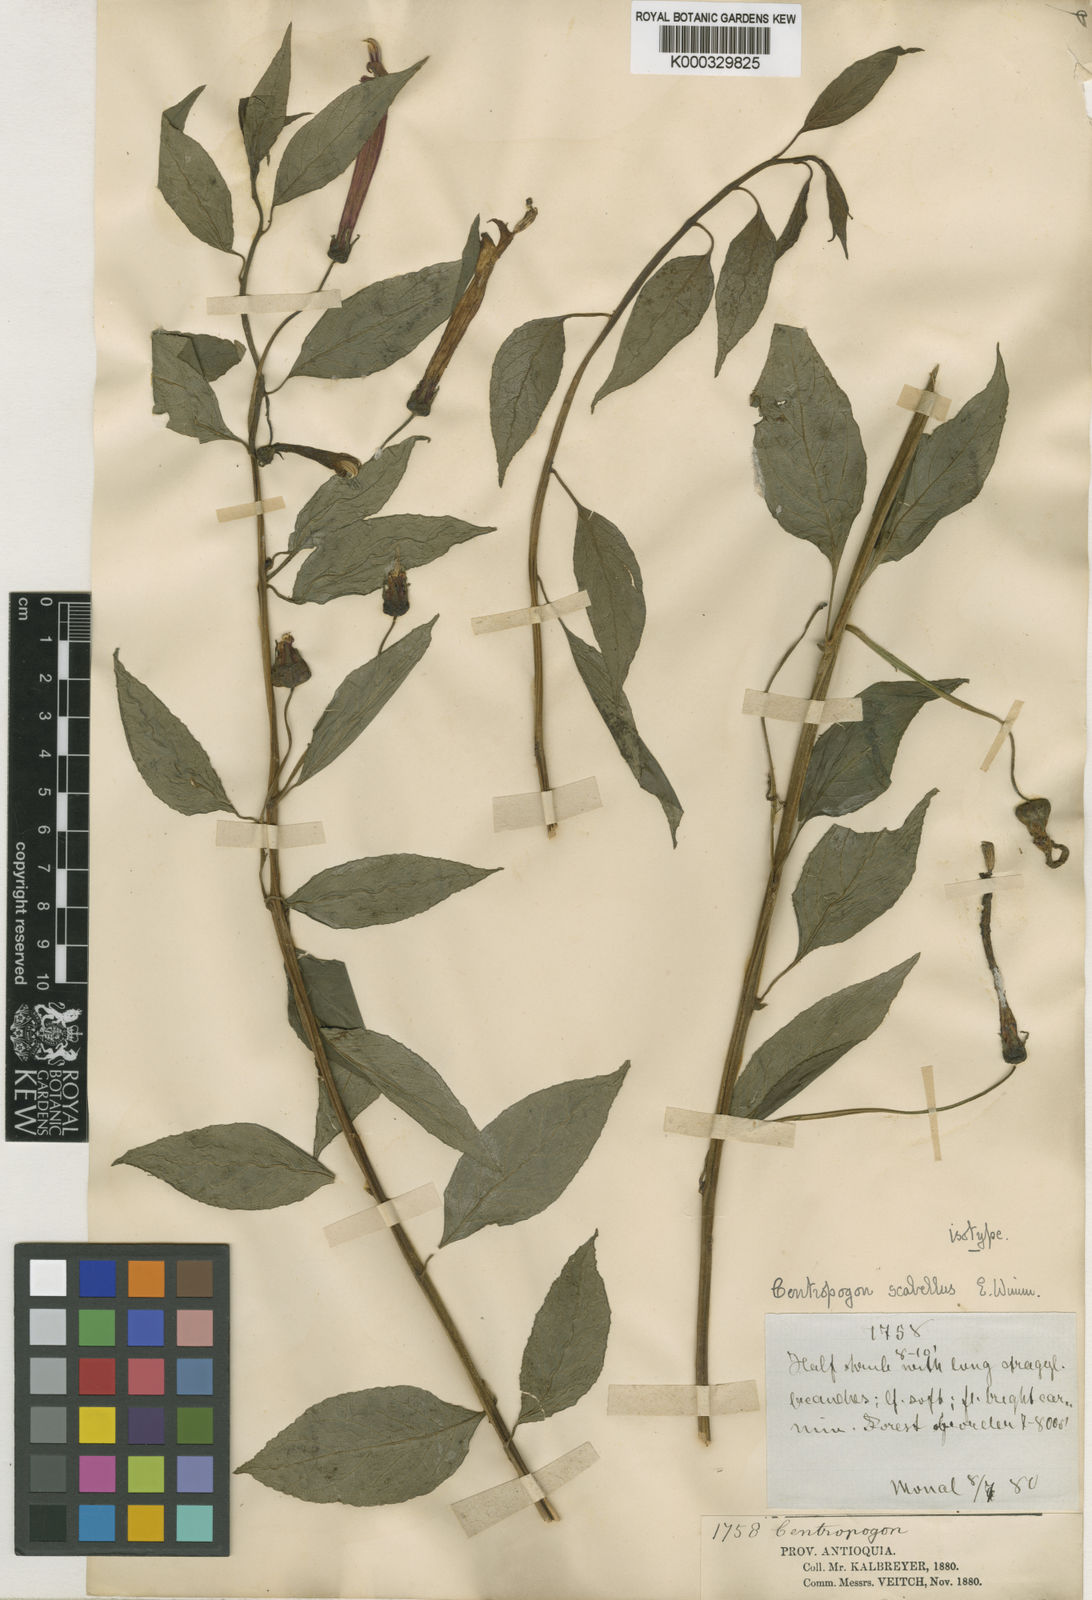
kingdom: Plantae
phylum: Tracheophyta
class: Magnoliopsida
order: Asterales
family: Campanulaceae
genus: Centropogon
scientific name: Centropogon scabellus
